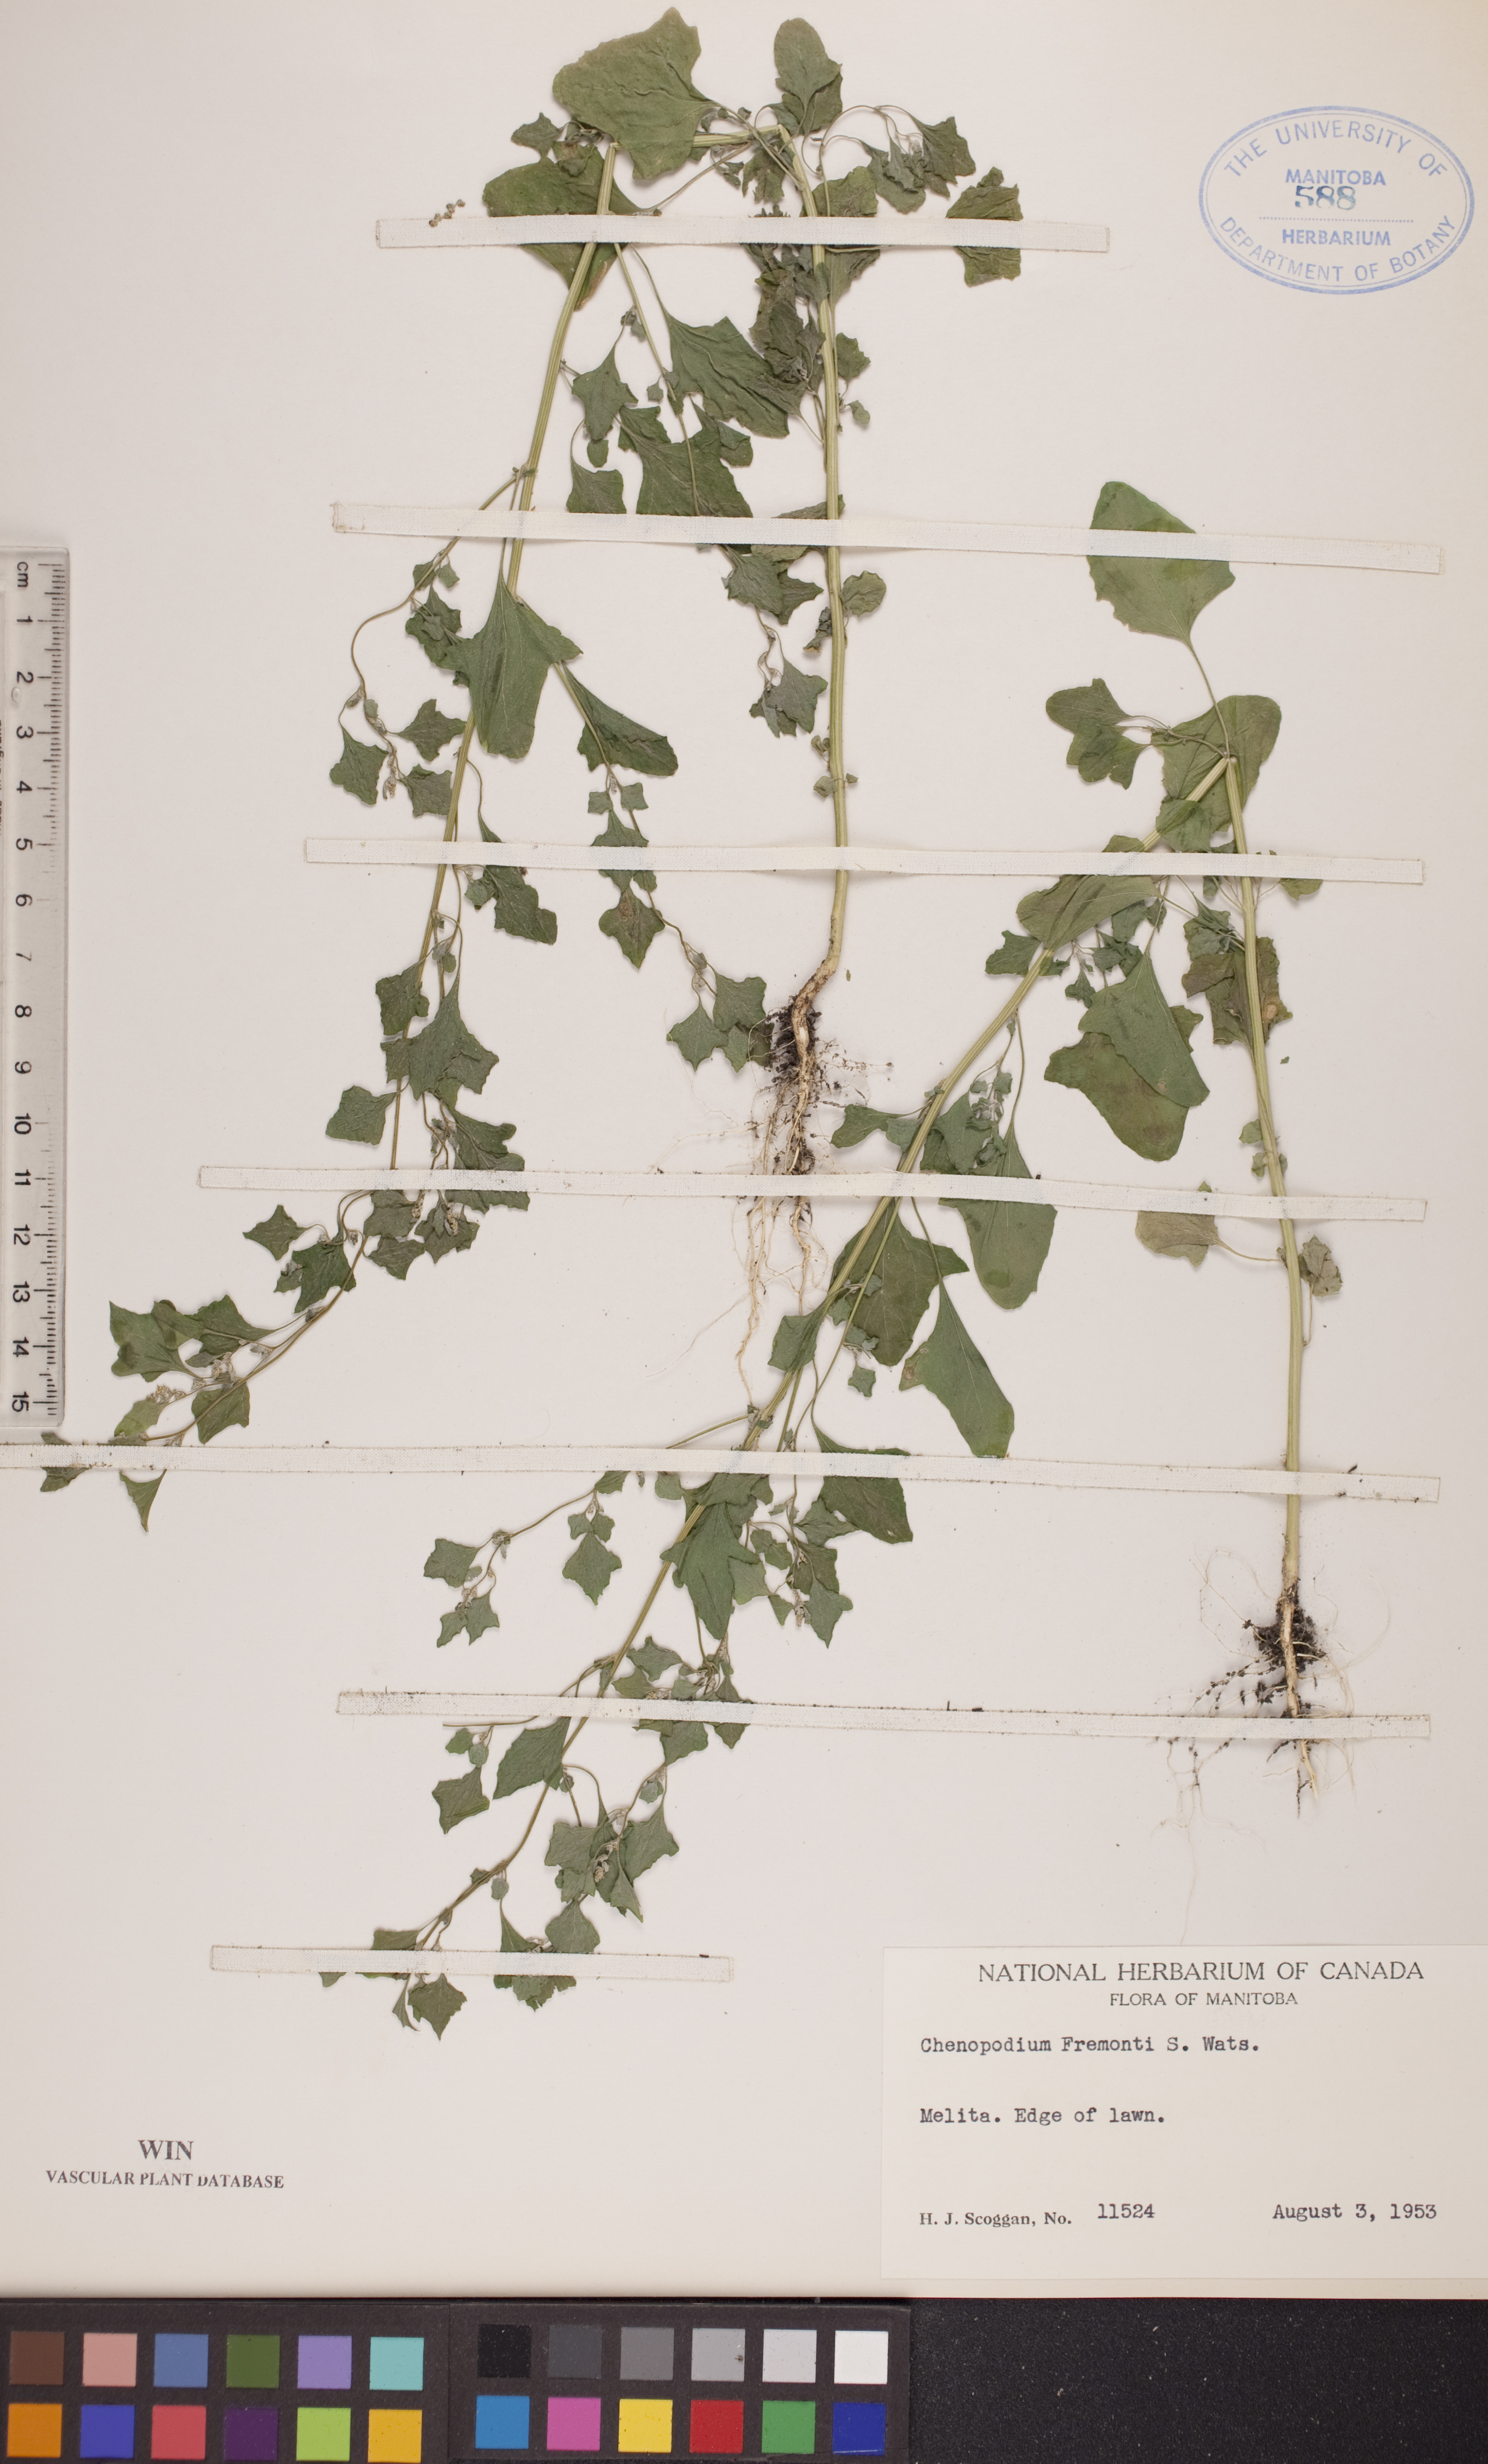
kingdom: Plantae
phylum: Tracheophyta
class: Magnoliopsida
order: Caryophyllales
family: Amaranthaceae
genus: Chenopodium
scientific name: Chenopodium fremontii
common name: Fremont's goosefoot
